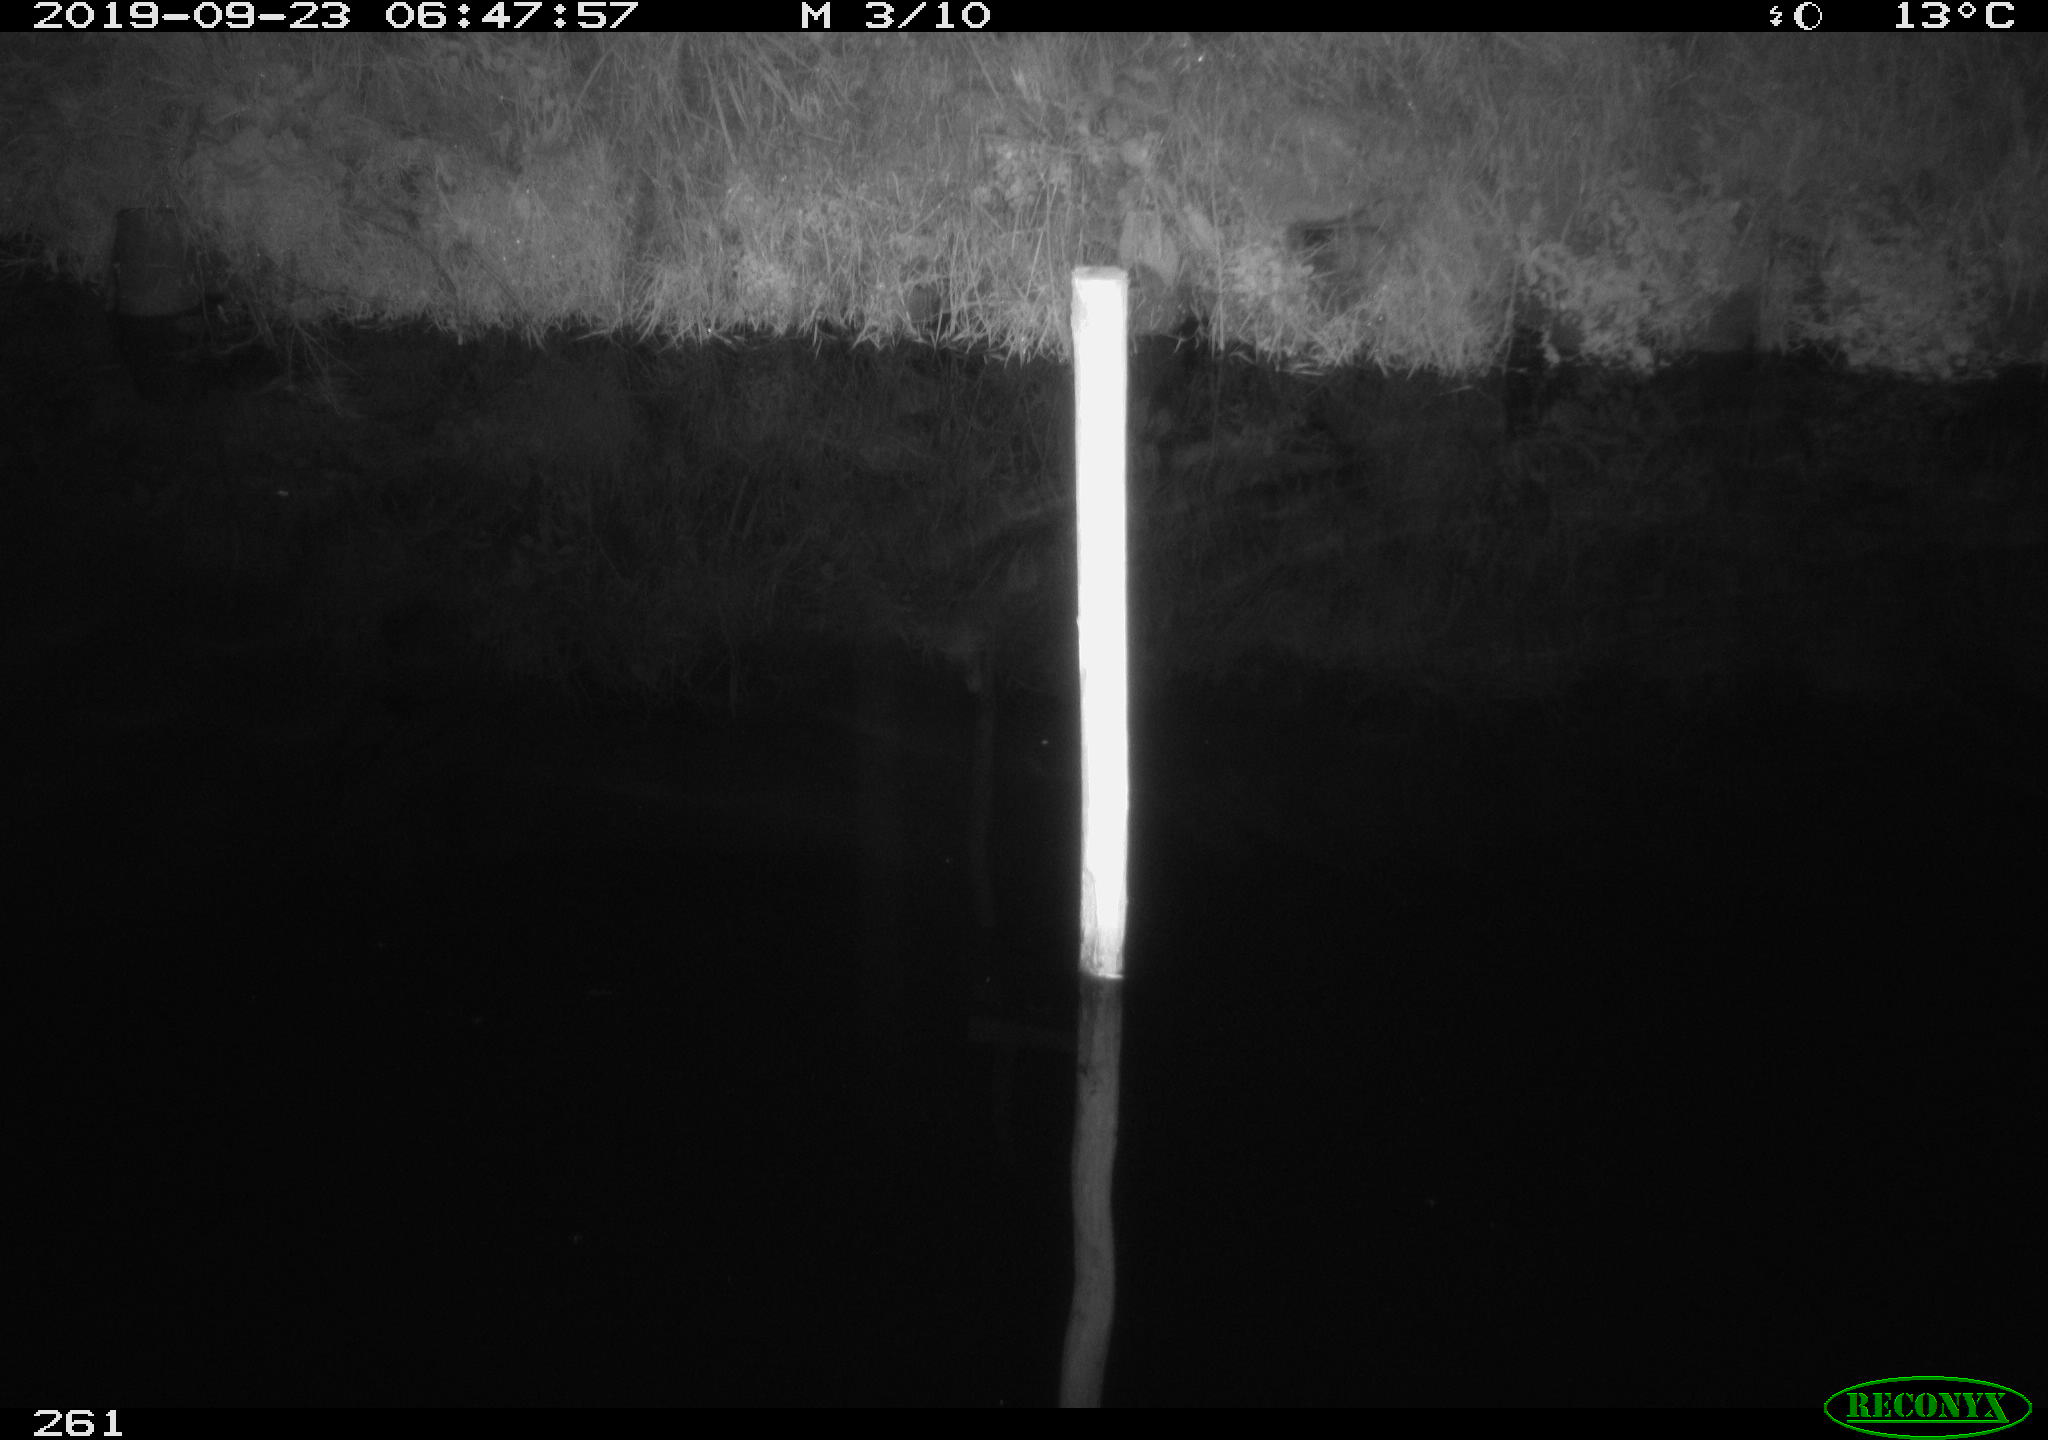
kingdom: Animalia
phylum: Chordata
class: Aves
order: Anseriformes
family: Anatidae
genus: Anas
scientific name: Anas platyrhynchos
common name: Mallard
